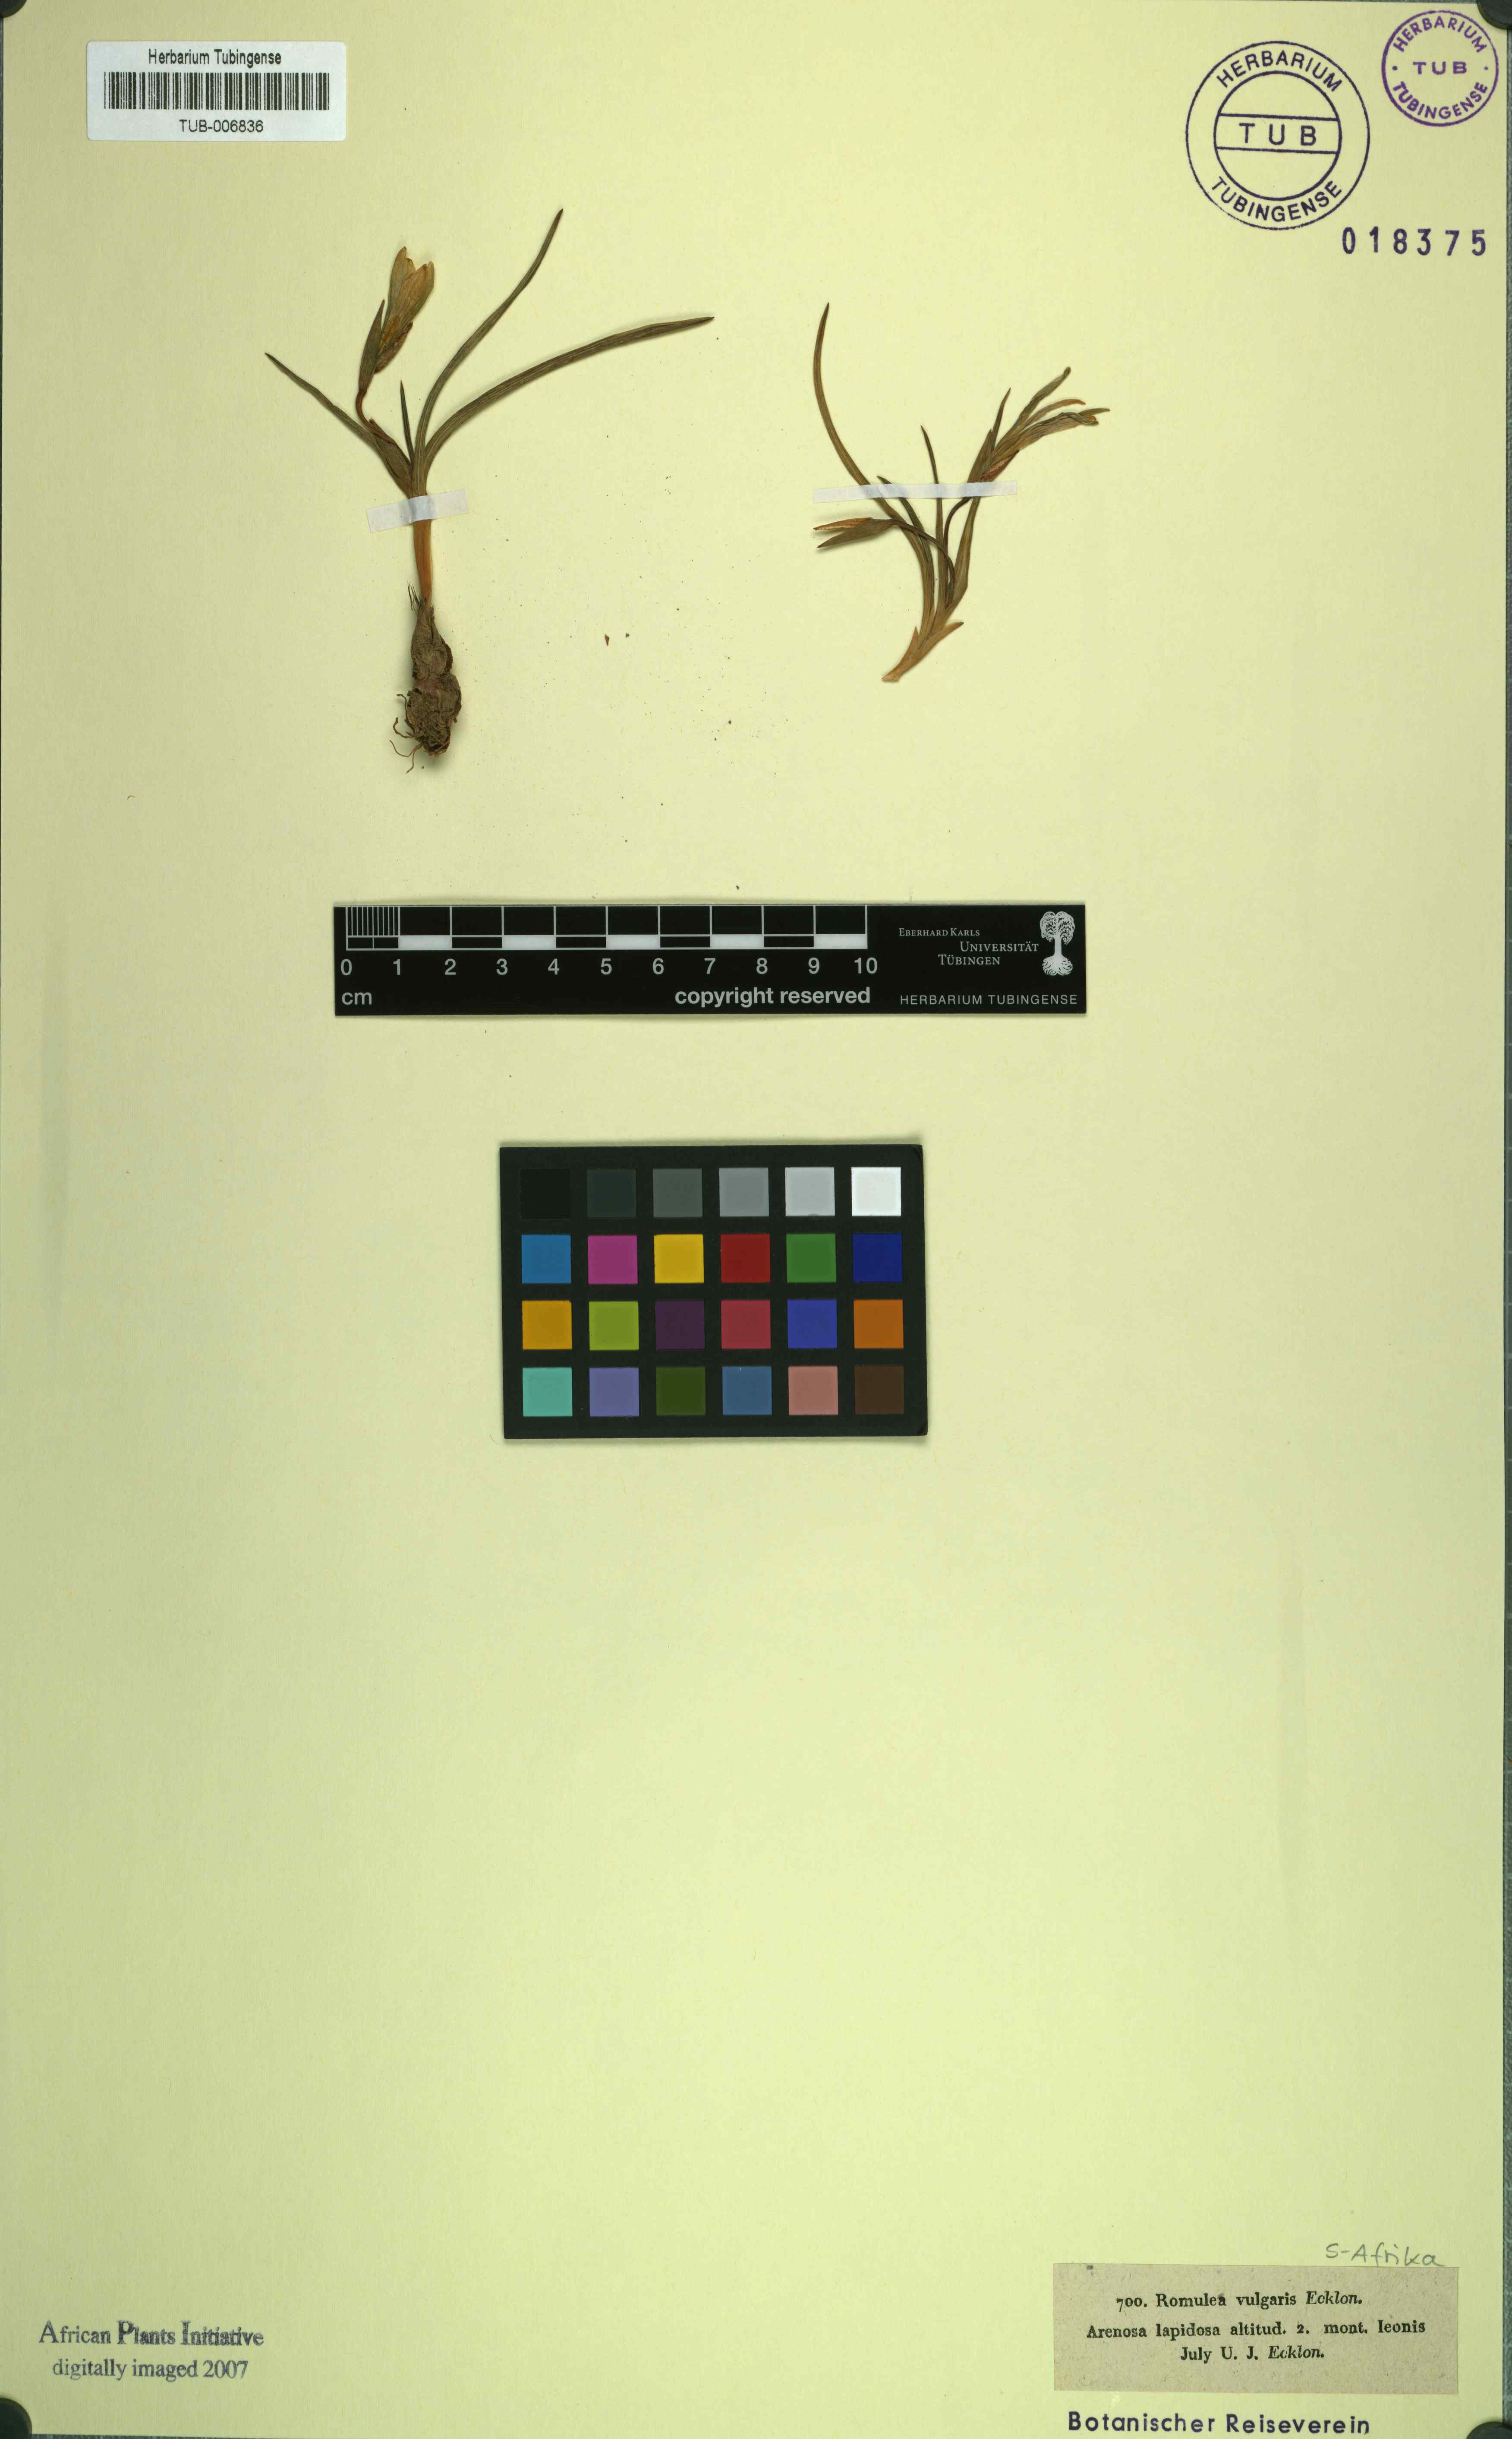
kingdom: Plantae
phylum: Tracheophyta
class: Liliopsida
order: Asparagales
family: Iridaceae
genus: Romulea
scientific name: Romulea rosea
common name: Oniongrass
